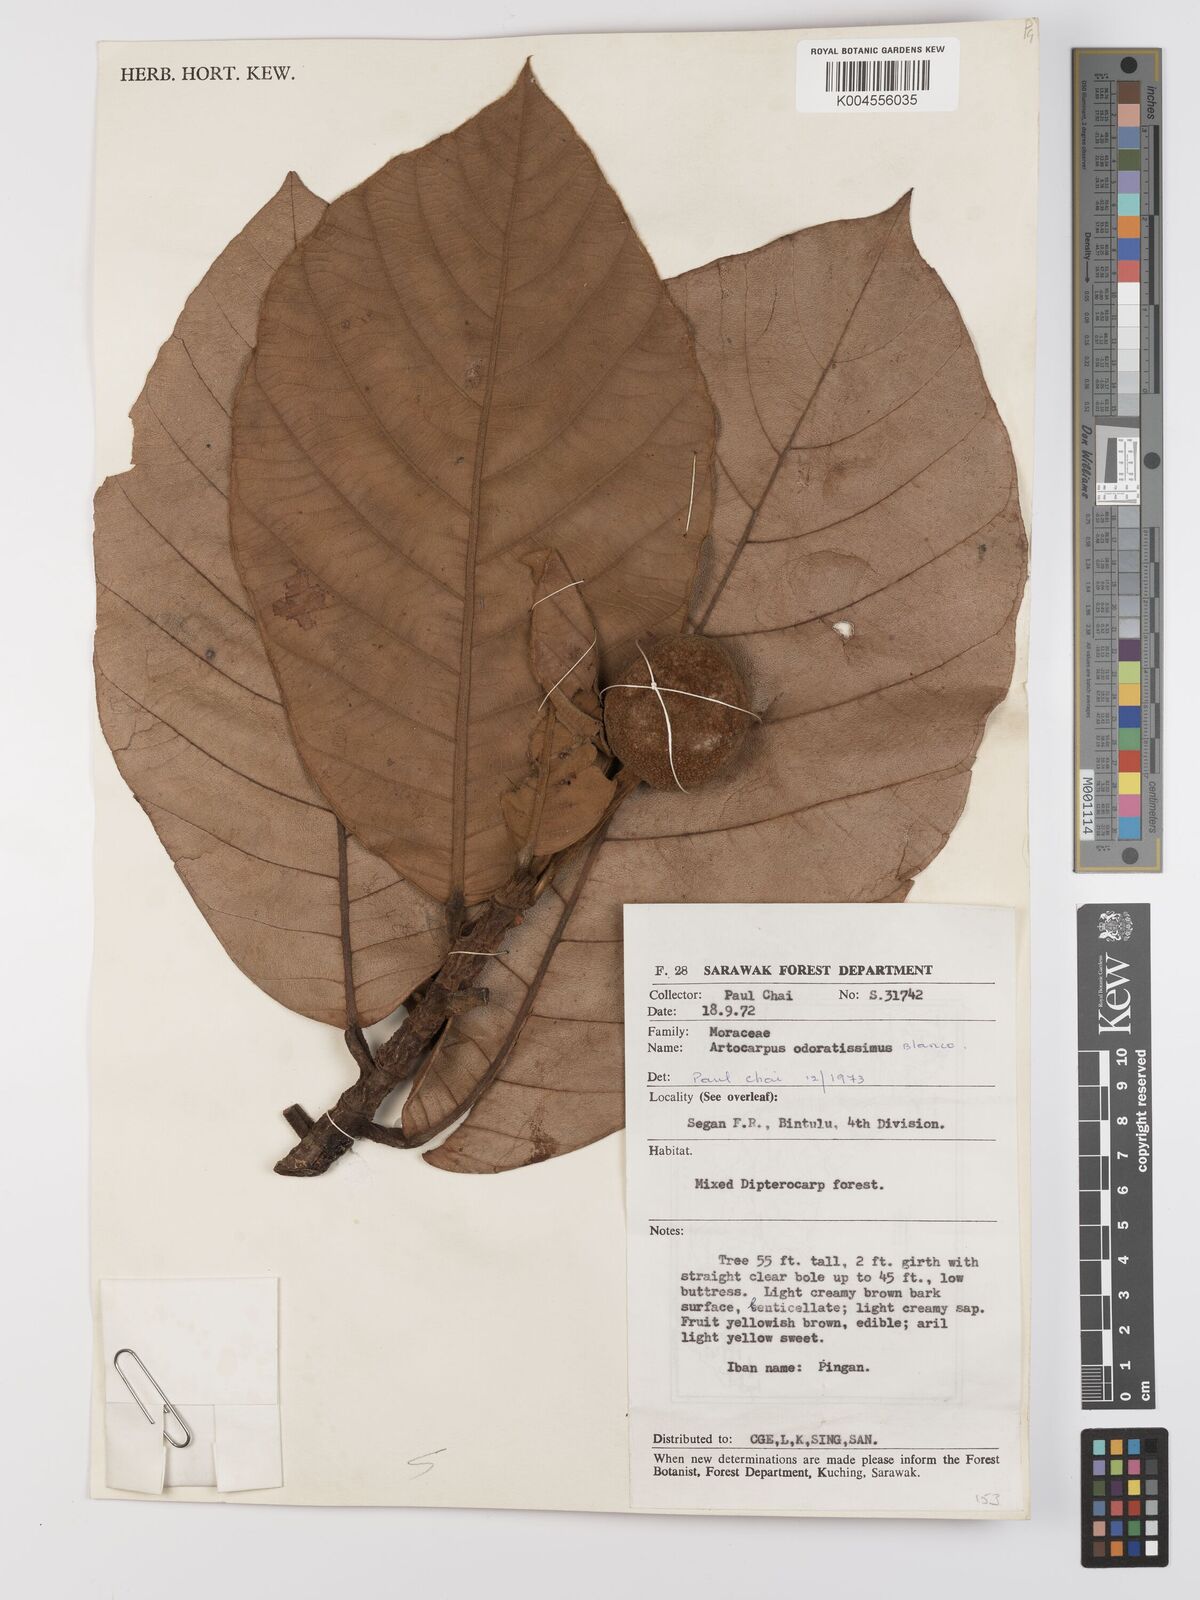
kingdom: Plantae
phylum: Tracheophyta
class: Magnoliopsida
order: Rosales
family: Moraceae
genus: Artocarpus
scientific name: Artocarpus odoratissimus
